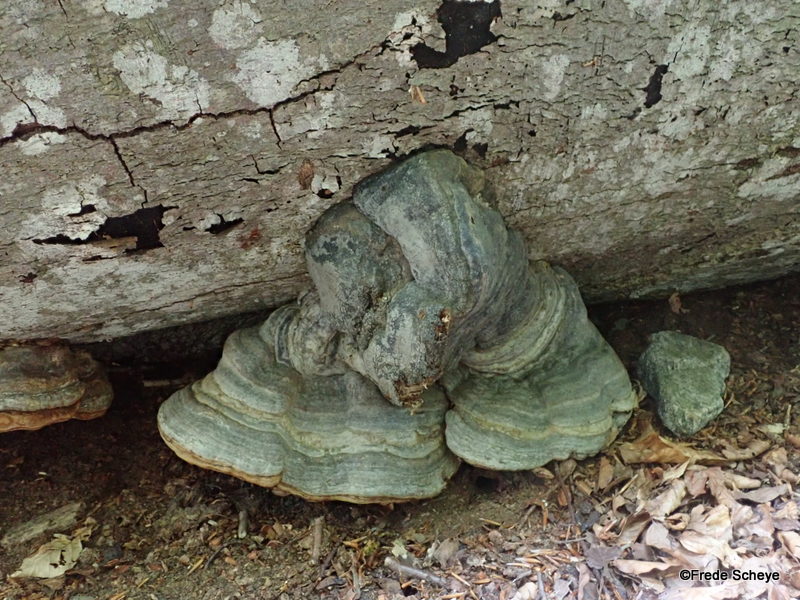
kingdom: Fungi
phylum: Basidiomycota
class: Agaricomycetes
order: Polyporales
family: Polyporaceae
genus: Fomes
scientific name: Fomes fomentarius
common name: tøndersvamp
